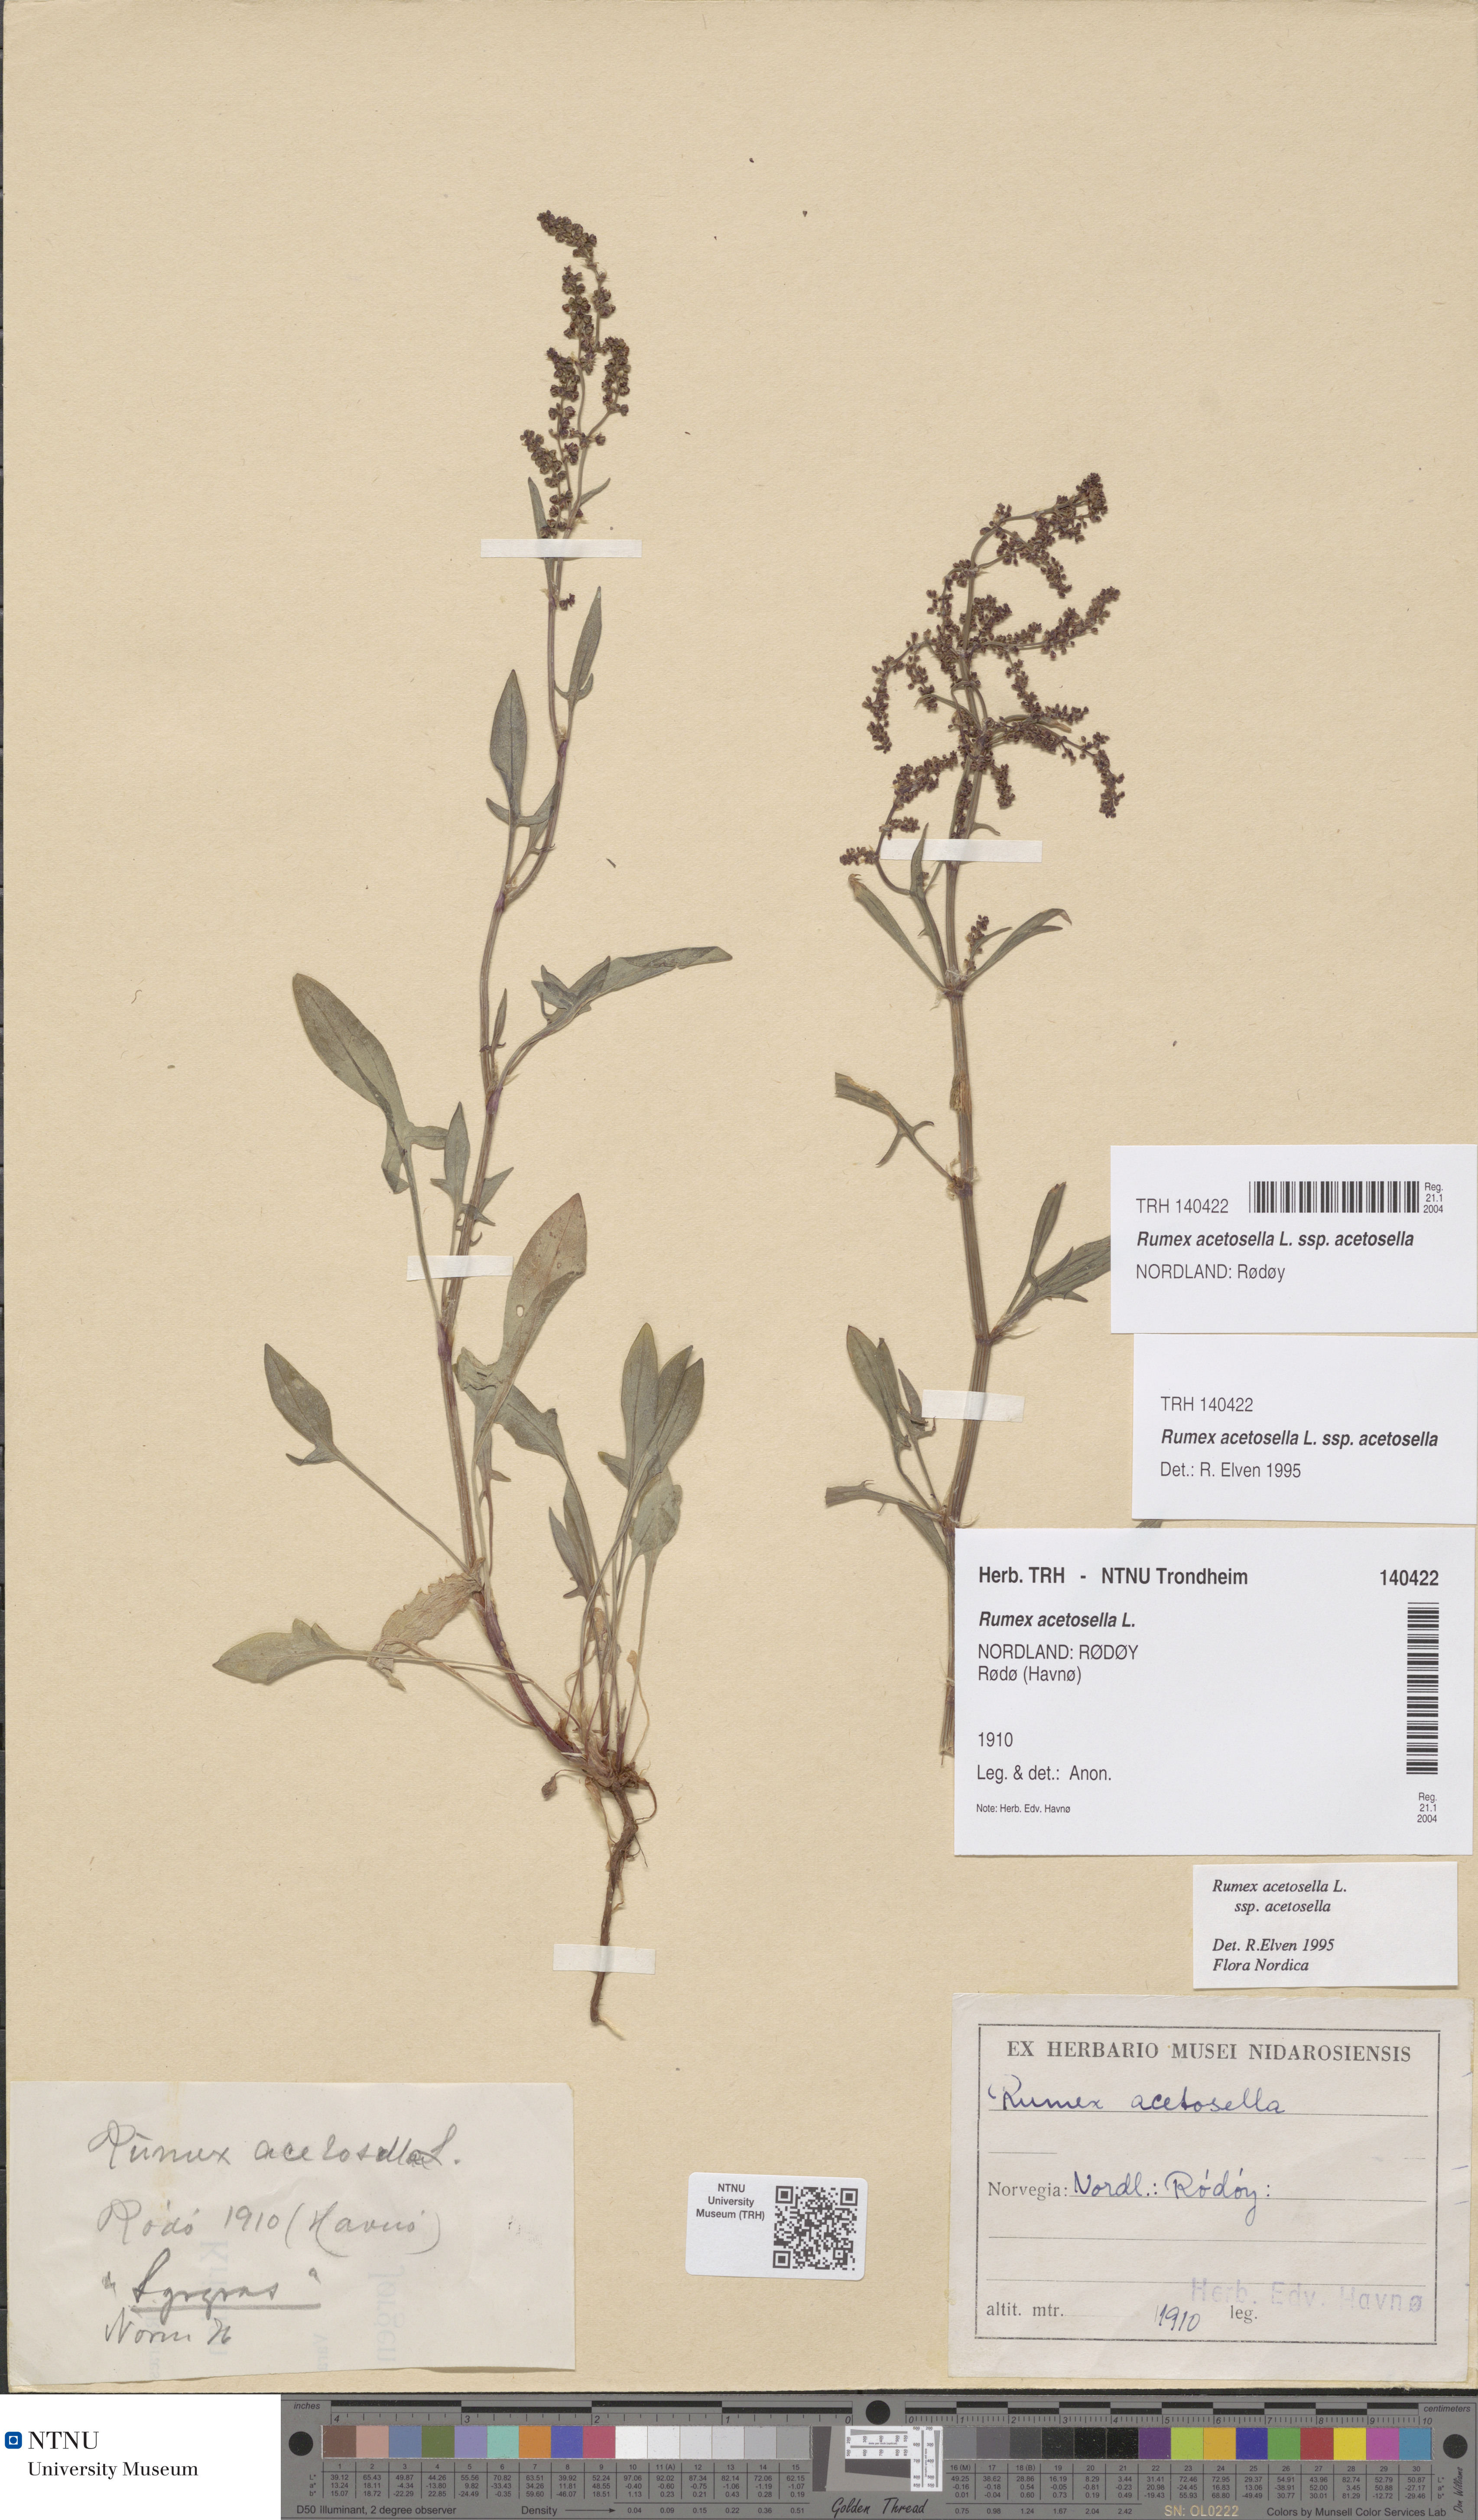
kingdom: Plantae
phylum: Tracheophyta
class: Magnoliopsida
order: Caryophyllales
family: Polygonaceae
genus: Rumex
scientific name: Rumex acetosella
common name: Common sheep sorrel
